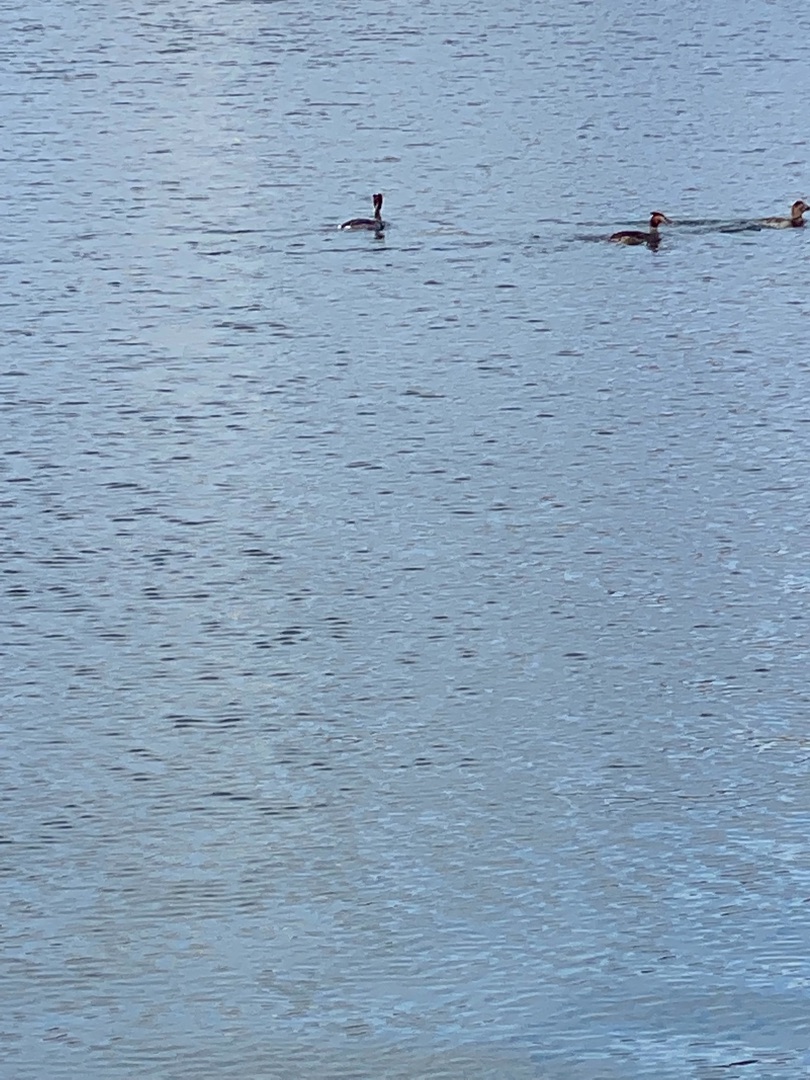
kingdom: Animalia
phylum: Chordata
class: Aves
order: Podicipediformes
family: Podicipedidae
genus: Podiceps
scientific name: Podiceps cristatus
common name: Toppet lappedykker
